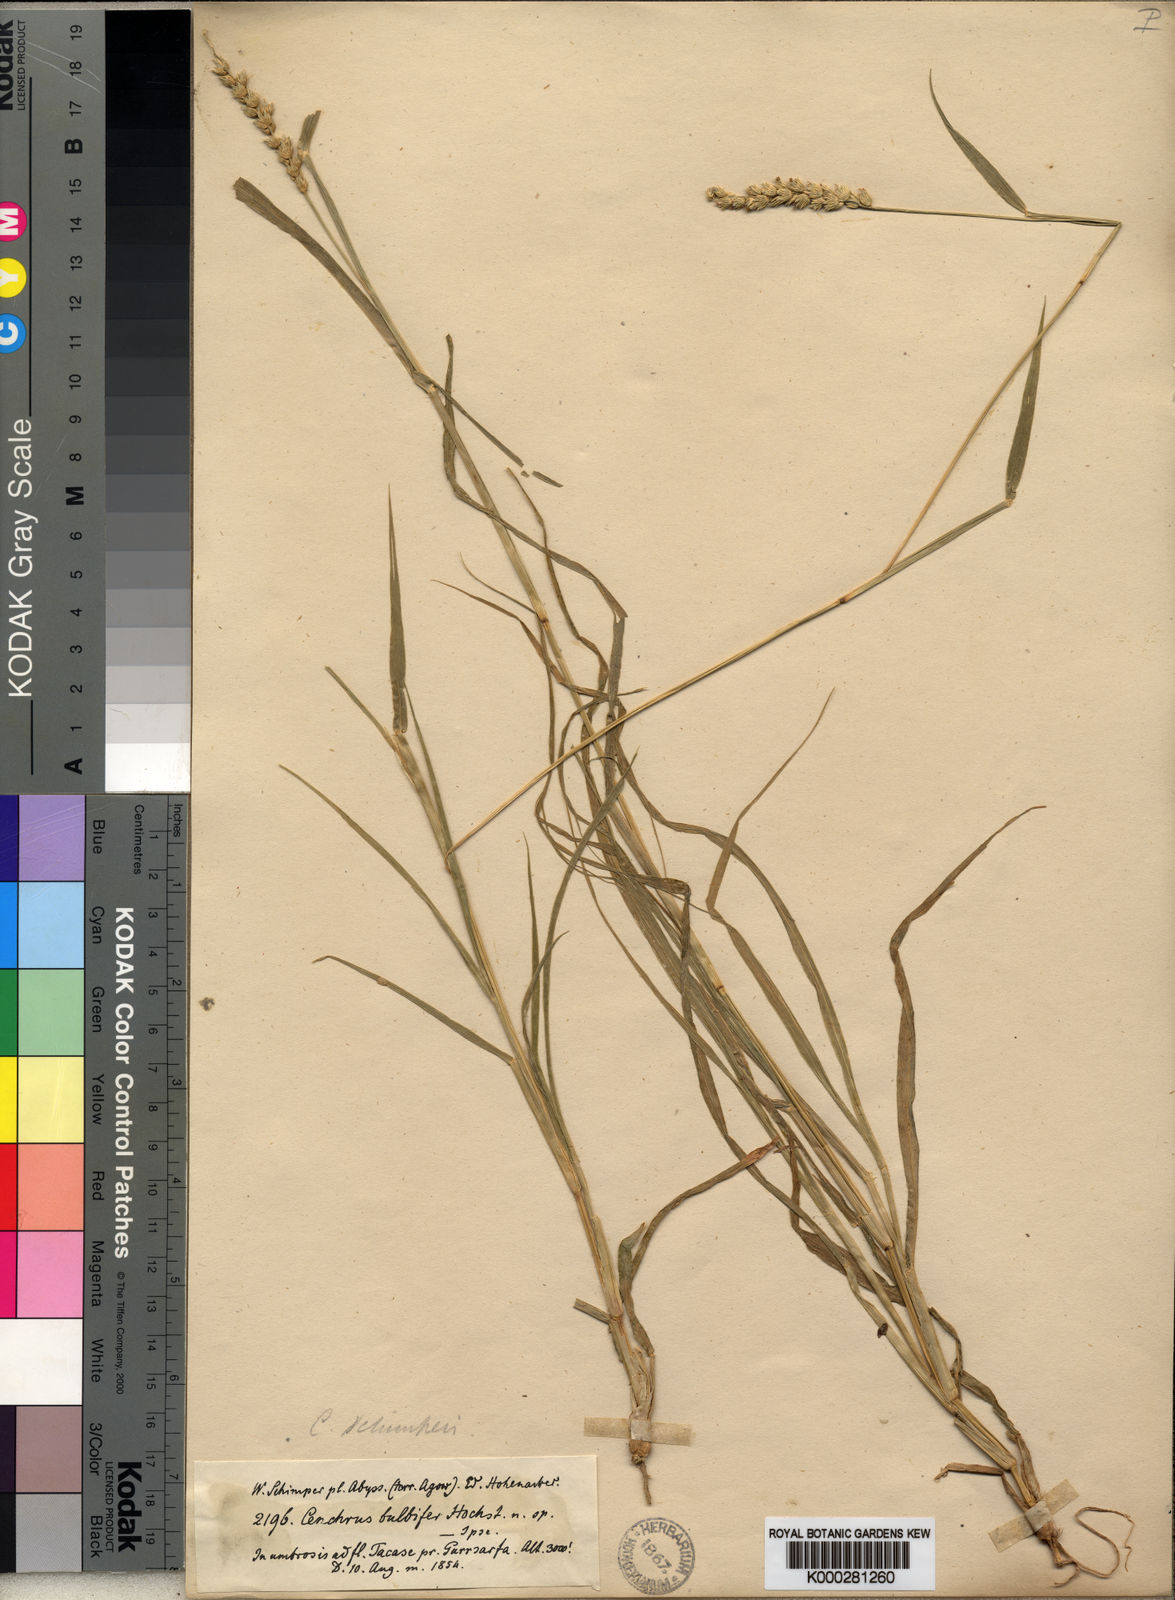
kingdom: Plantae
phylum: Tracheophyta
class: Liliopsida
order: Poales
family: Poaceae
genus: Cenchrus
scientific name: Cenchrus
